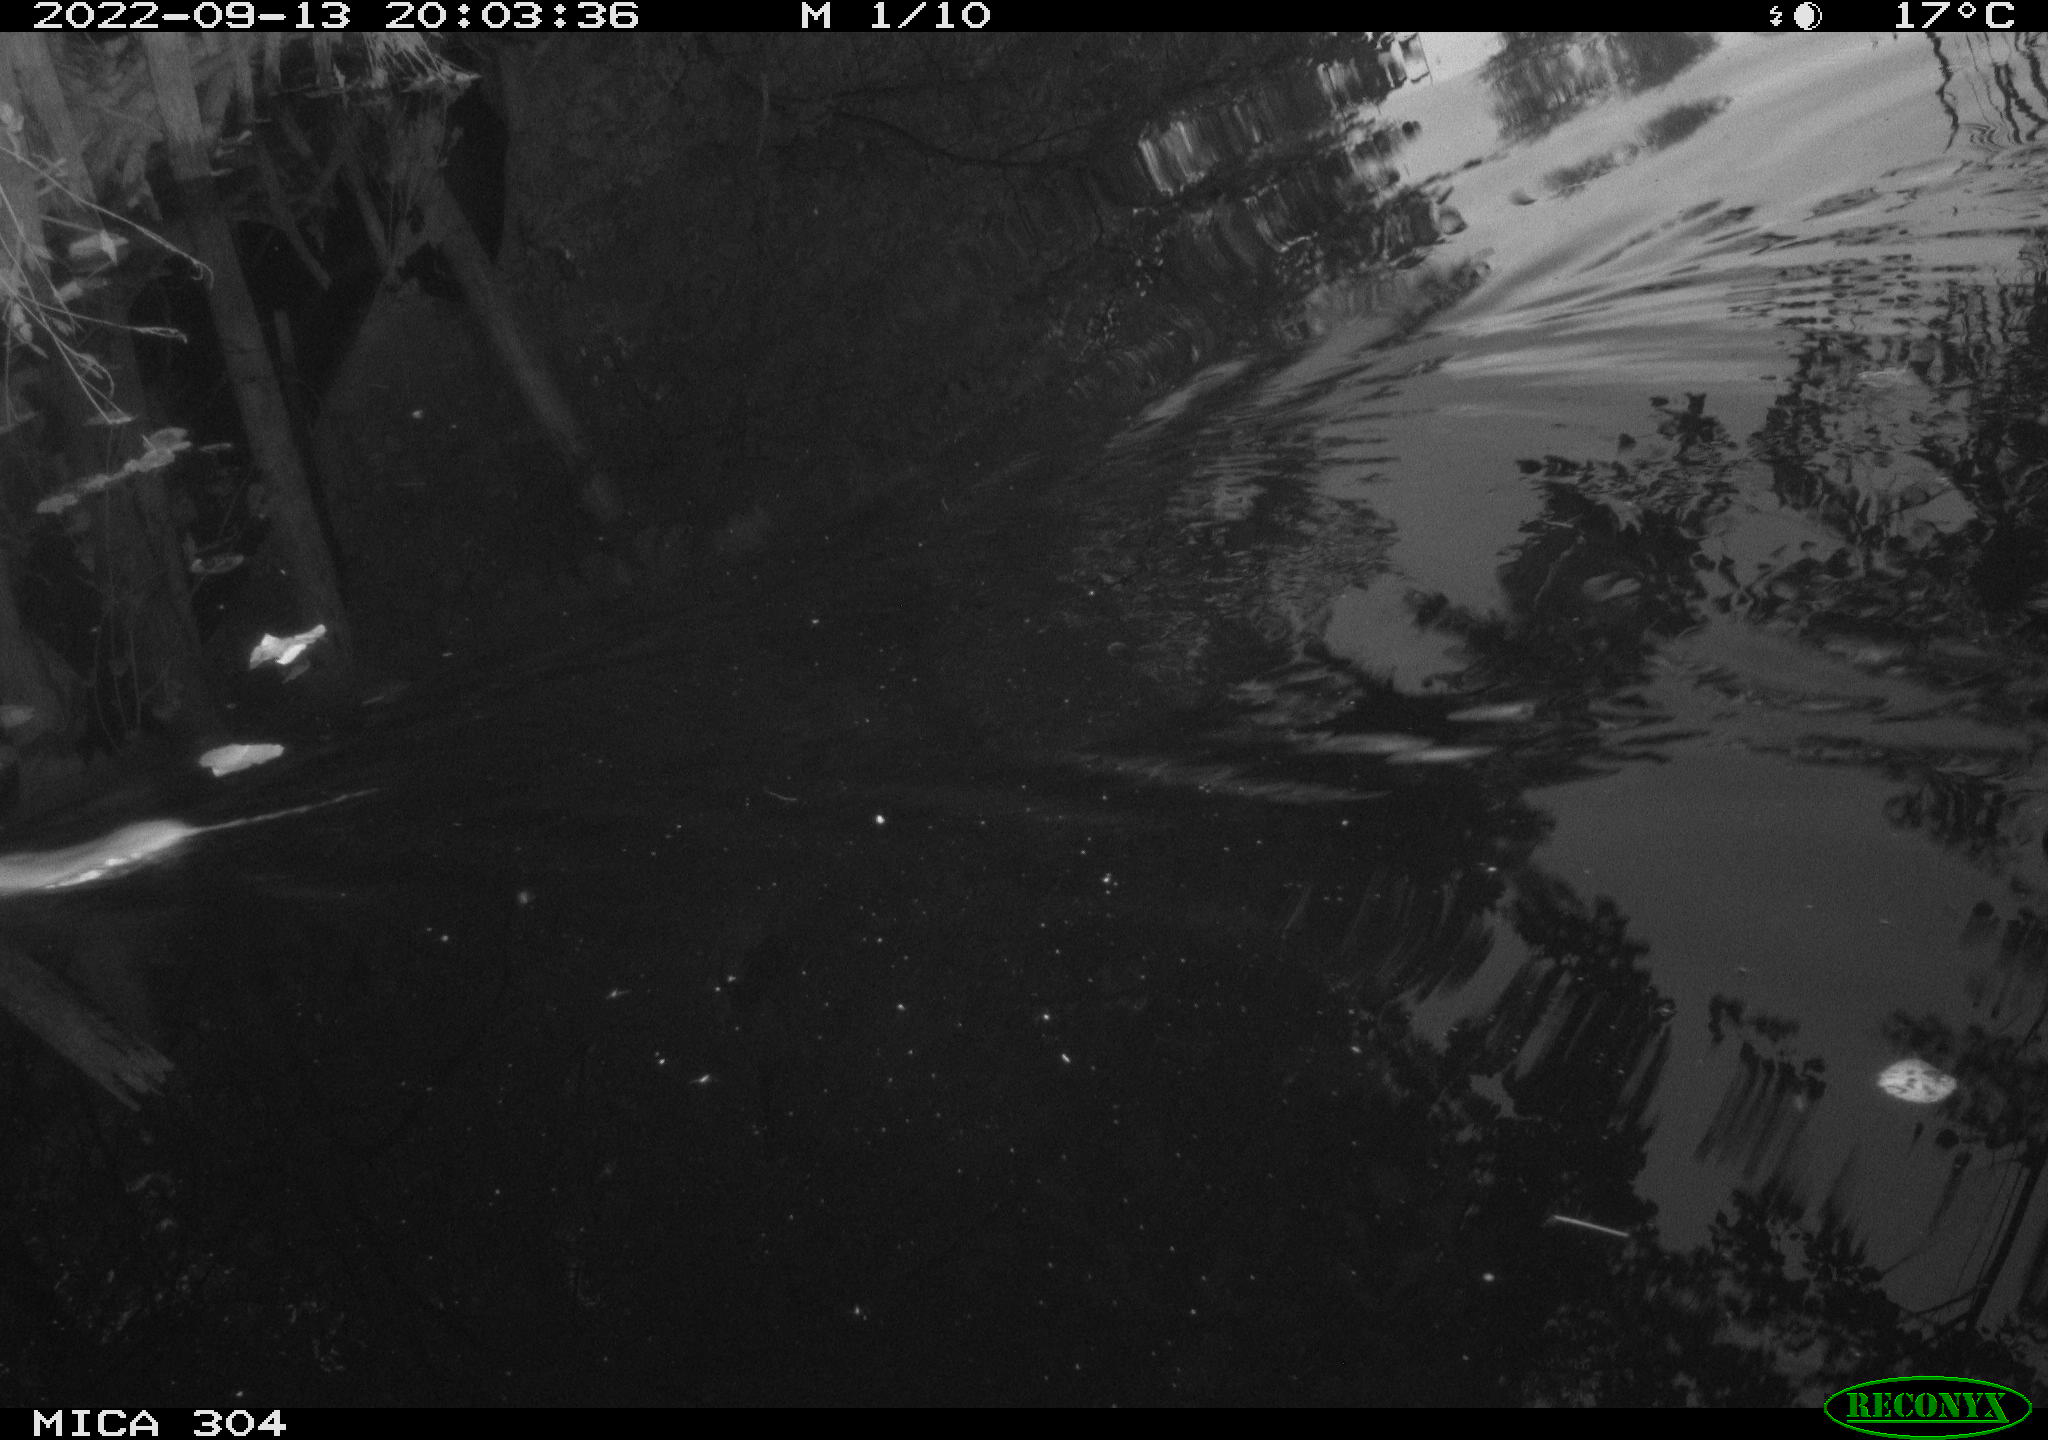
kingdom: Animalia
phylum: Chordata
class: Mammalia
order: Rodentia
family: Muridae
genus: Rattus
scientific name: Rattus norvegicus
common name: Brown rat
